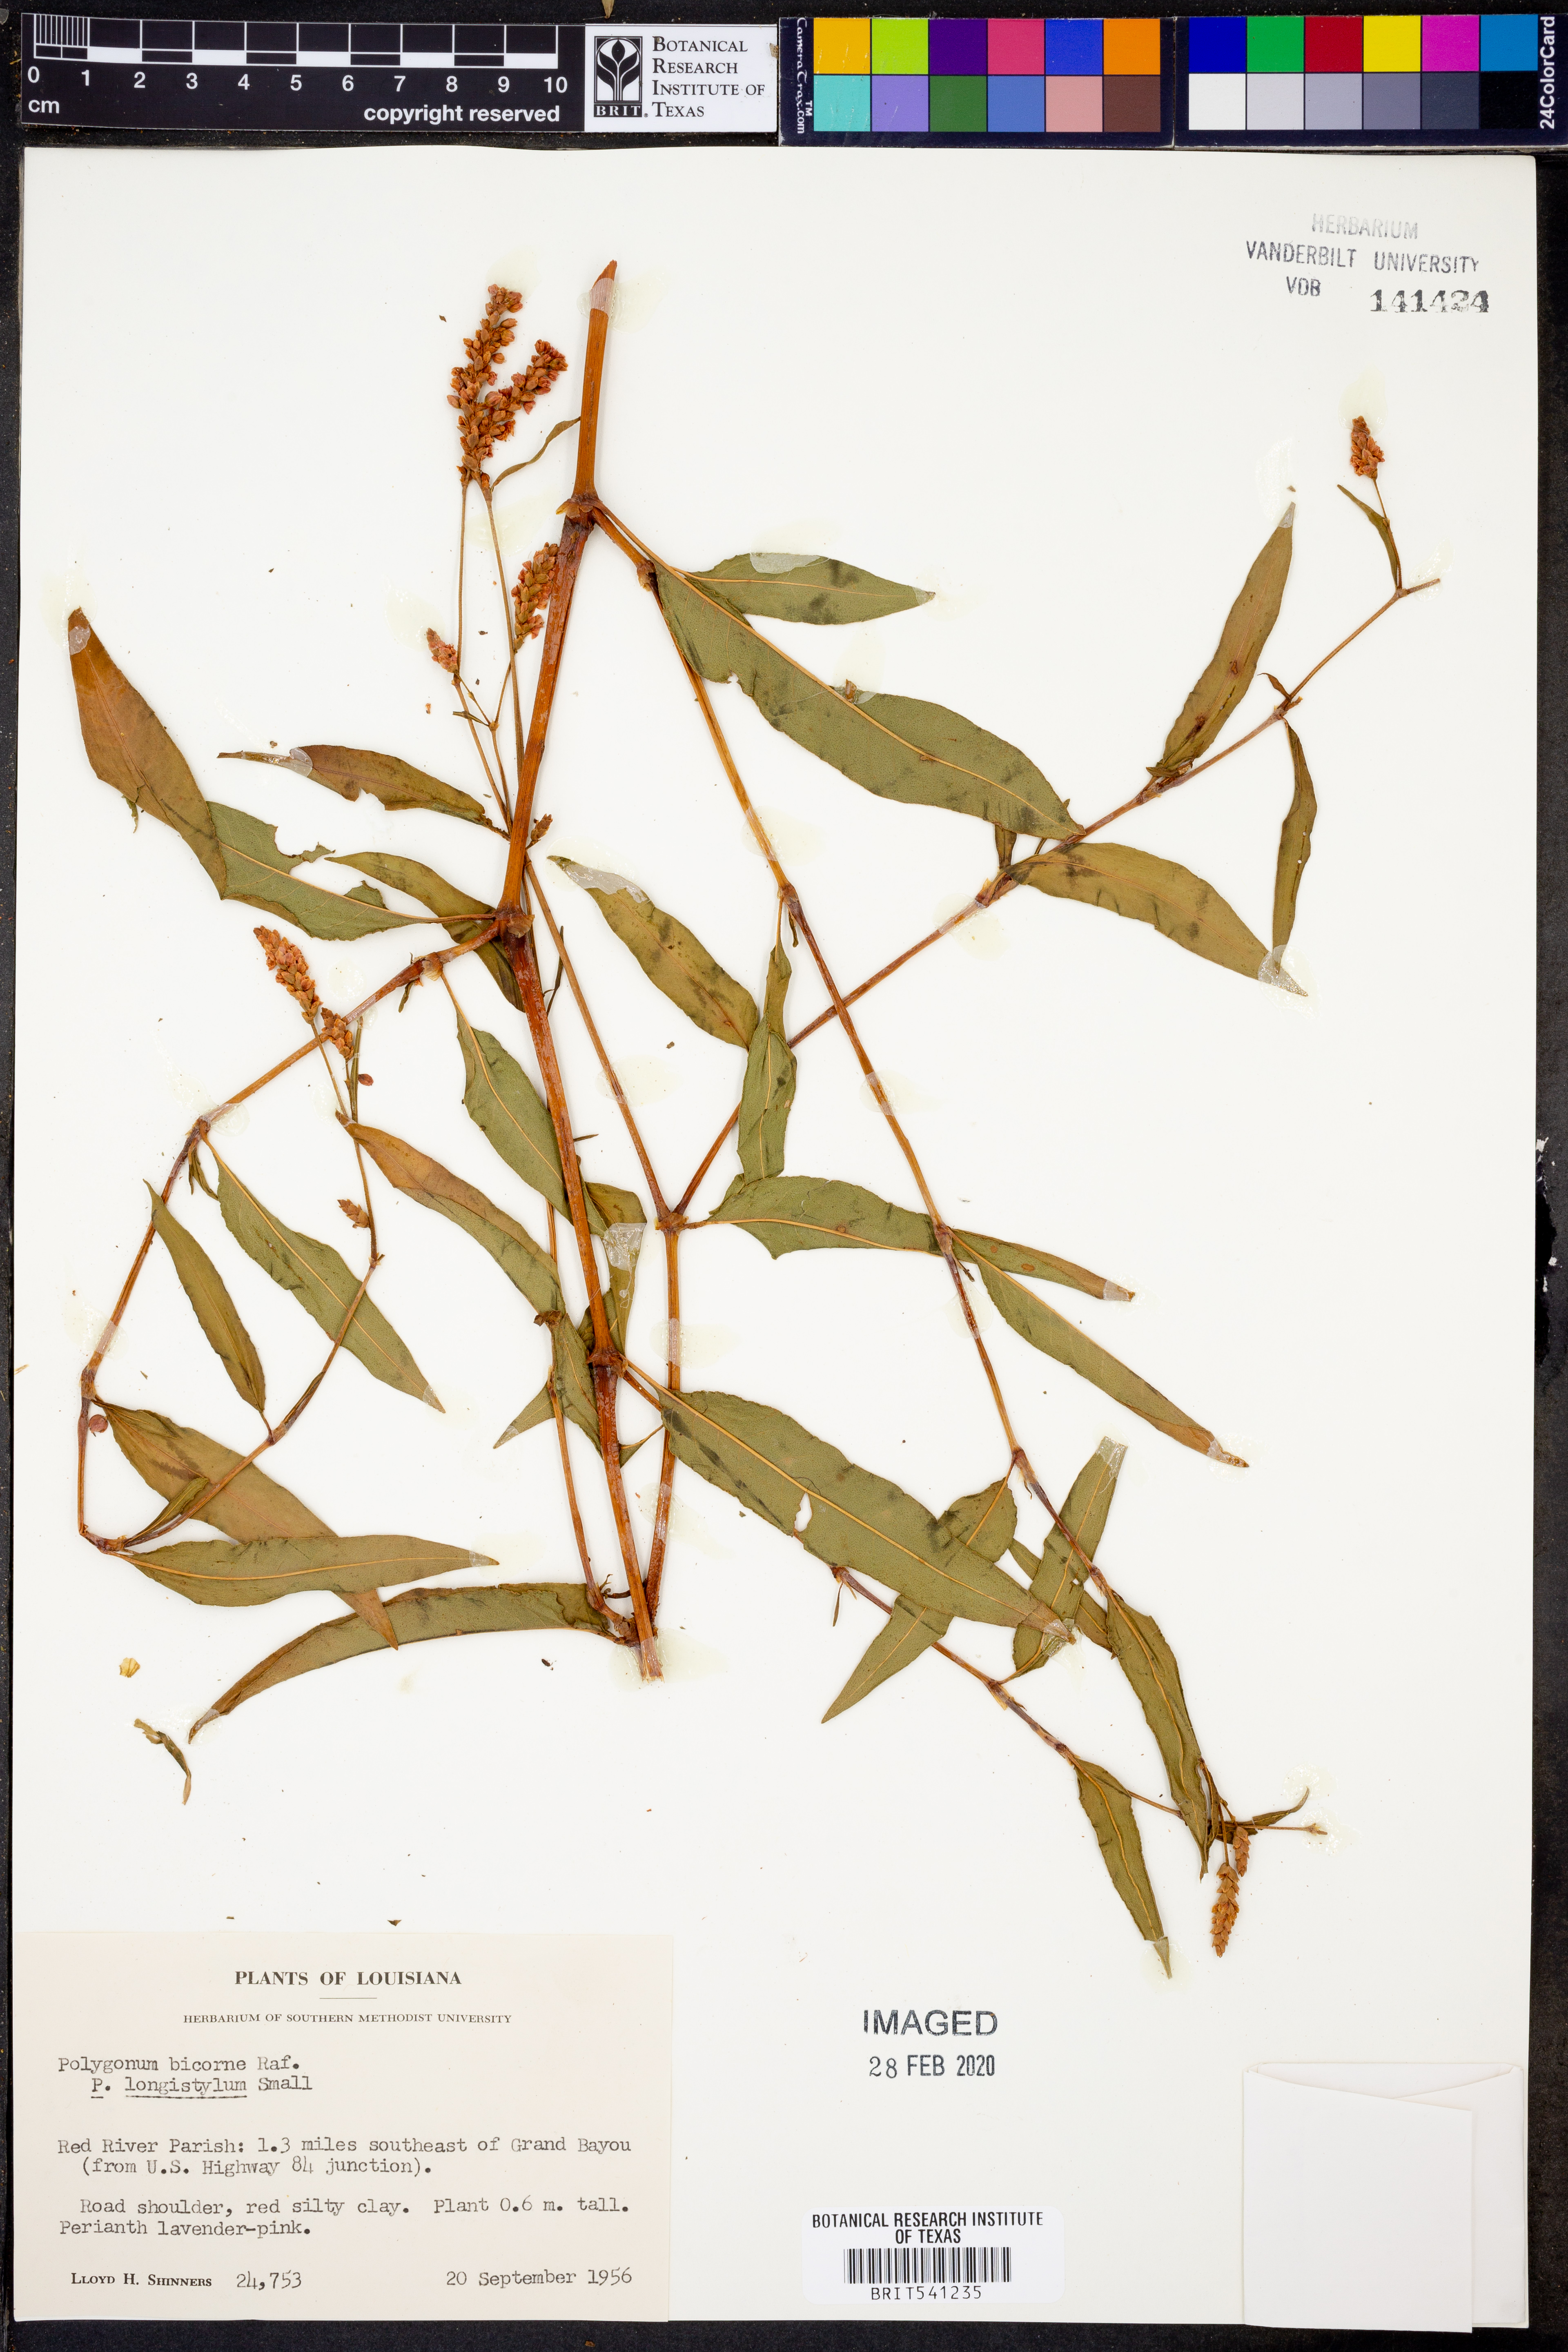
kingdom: Plantae
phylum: Tracheophyta
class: Magnoliopsida
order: Caryophyllales
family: Polygonaceae
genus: Persicaria
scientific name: Persicaria bicornis
